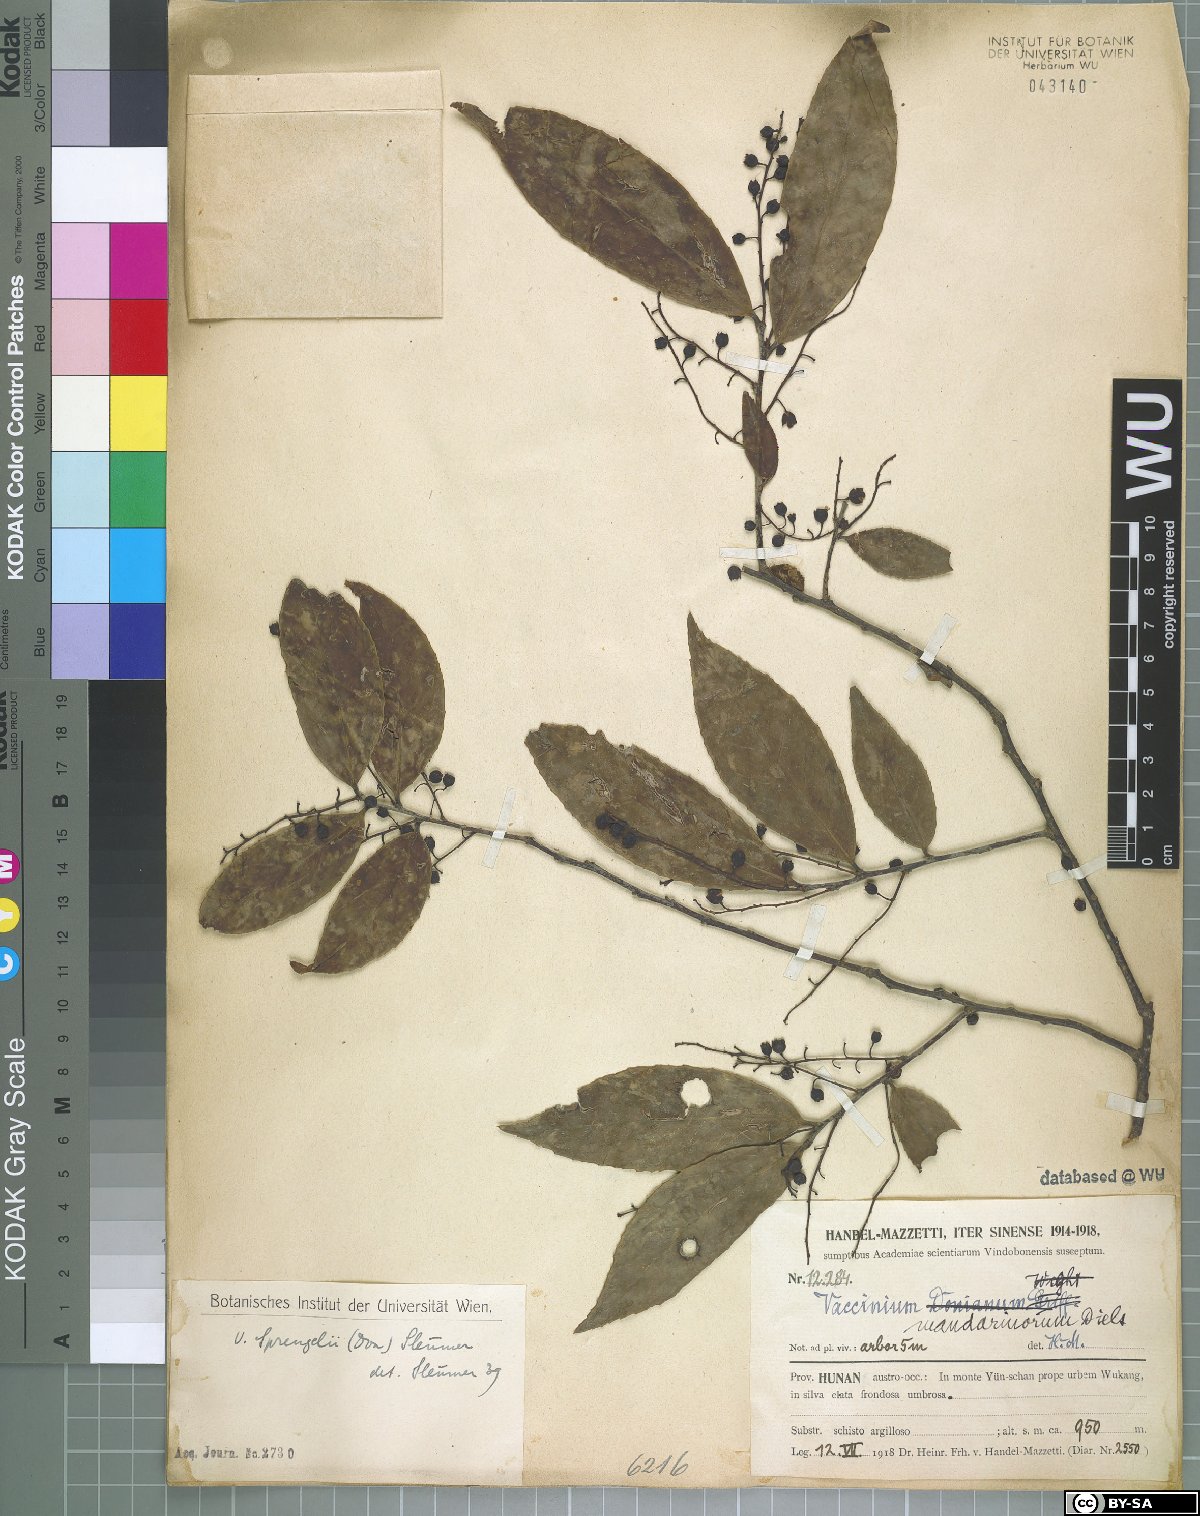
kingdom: Plantae
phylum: Tracheophyta
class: Magnoliopsida
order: Ericales
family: Ericaceae
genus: Vaccinium
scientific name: Vaccinium sprengelii
